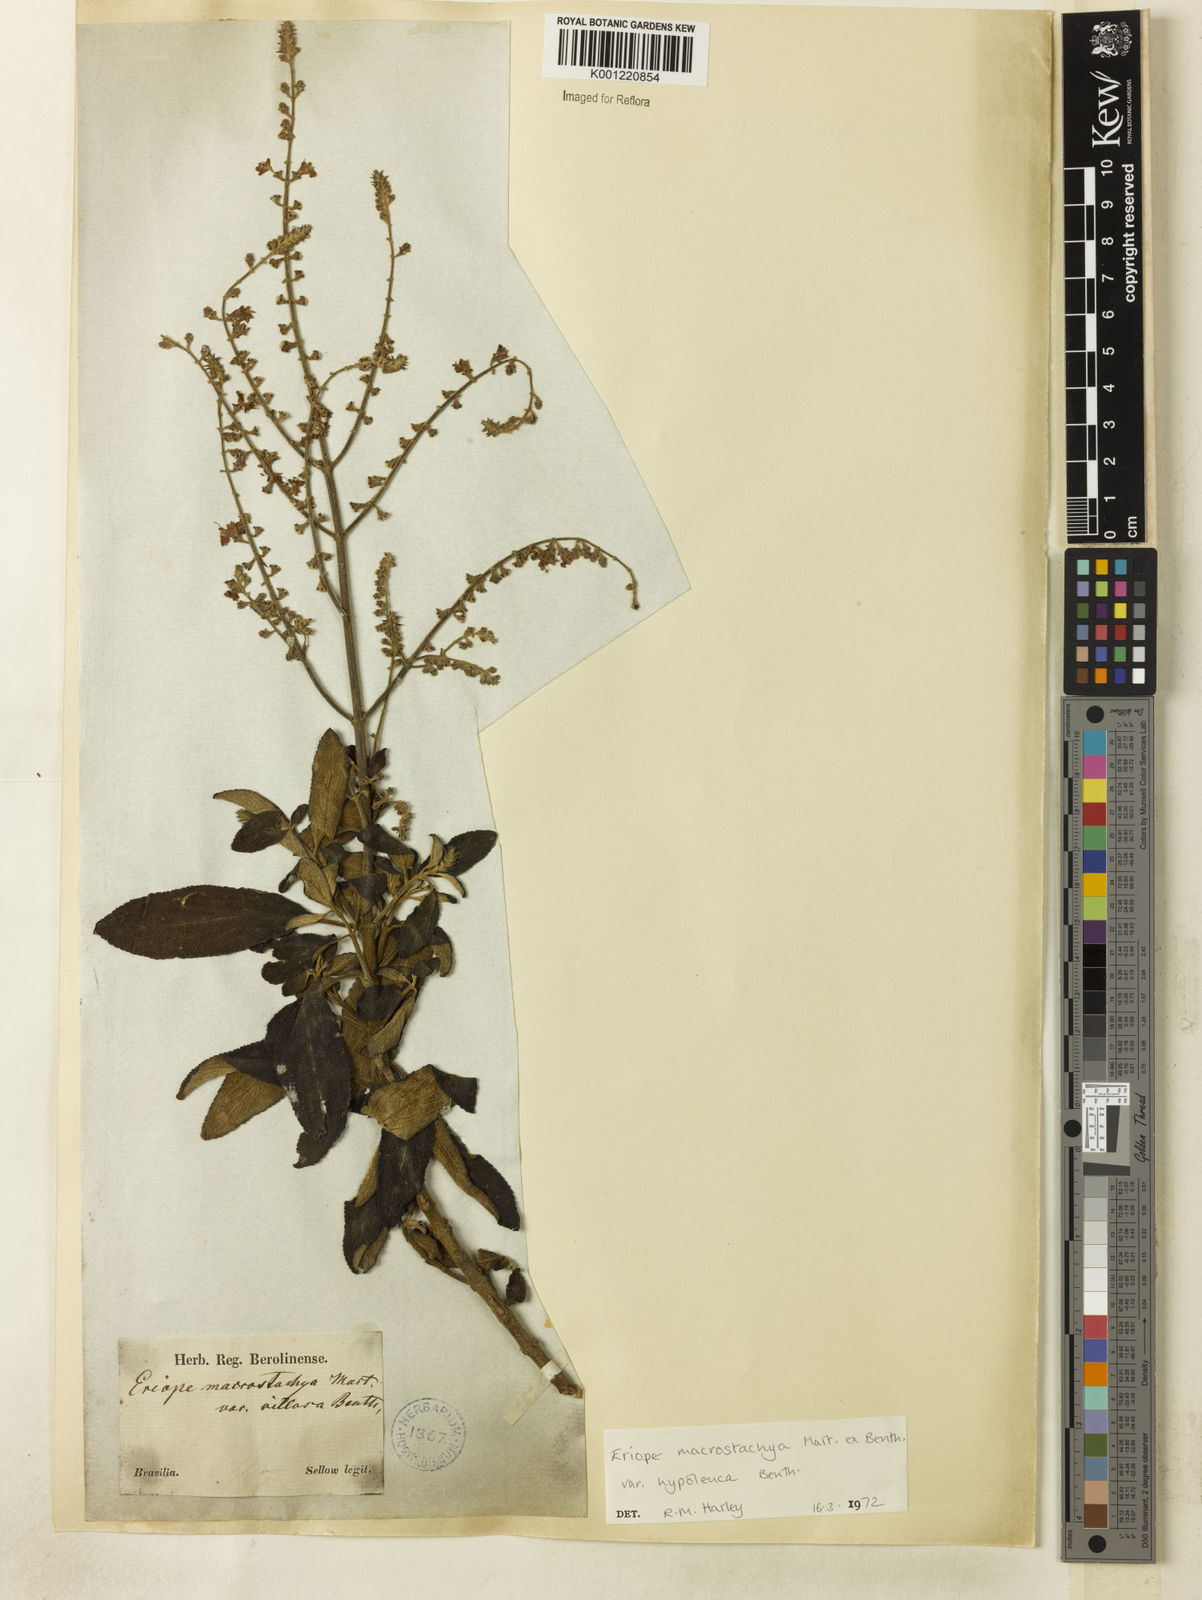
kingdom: Plantae
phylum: Tracheophyta
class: Magnoliopsida
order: Lamiales
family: Lamiaceae
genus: Eriope
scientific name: Eriope macrostachya
